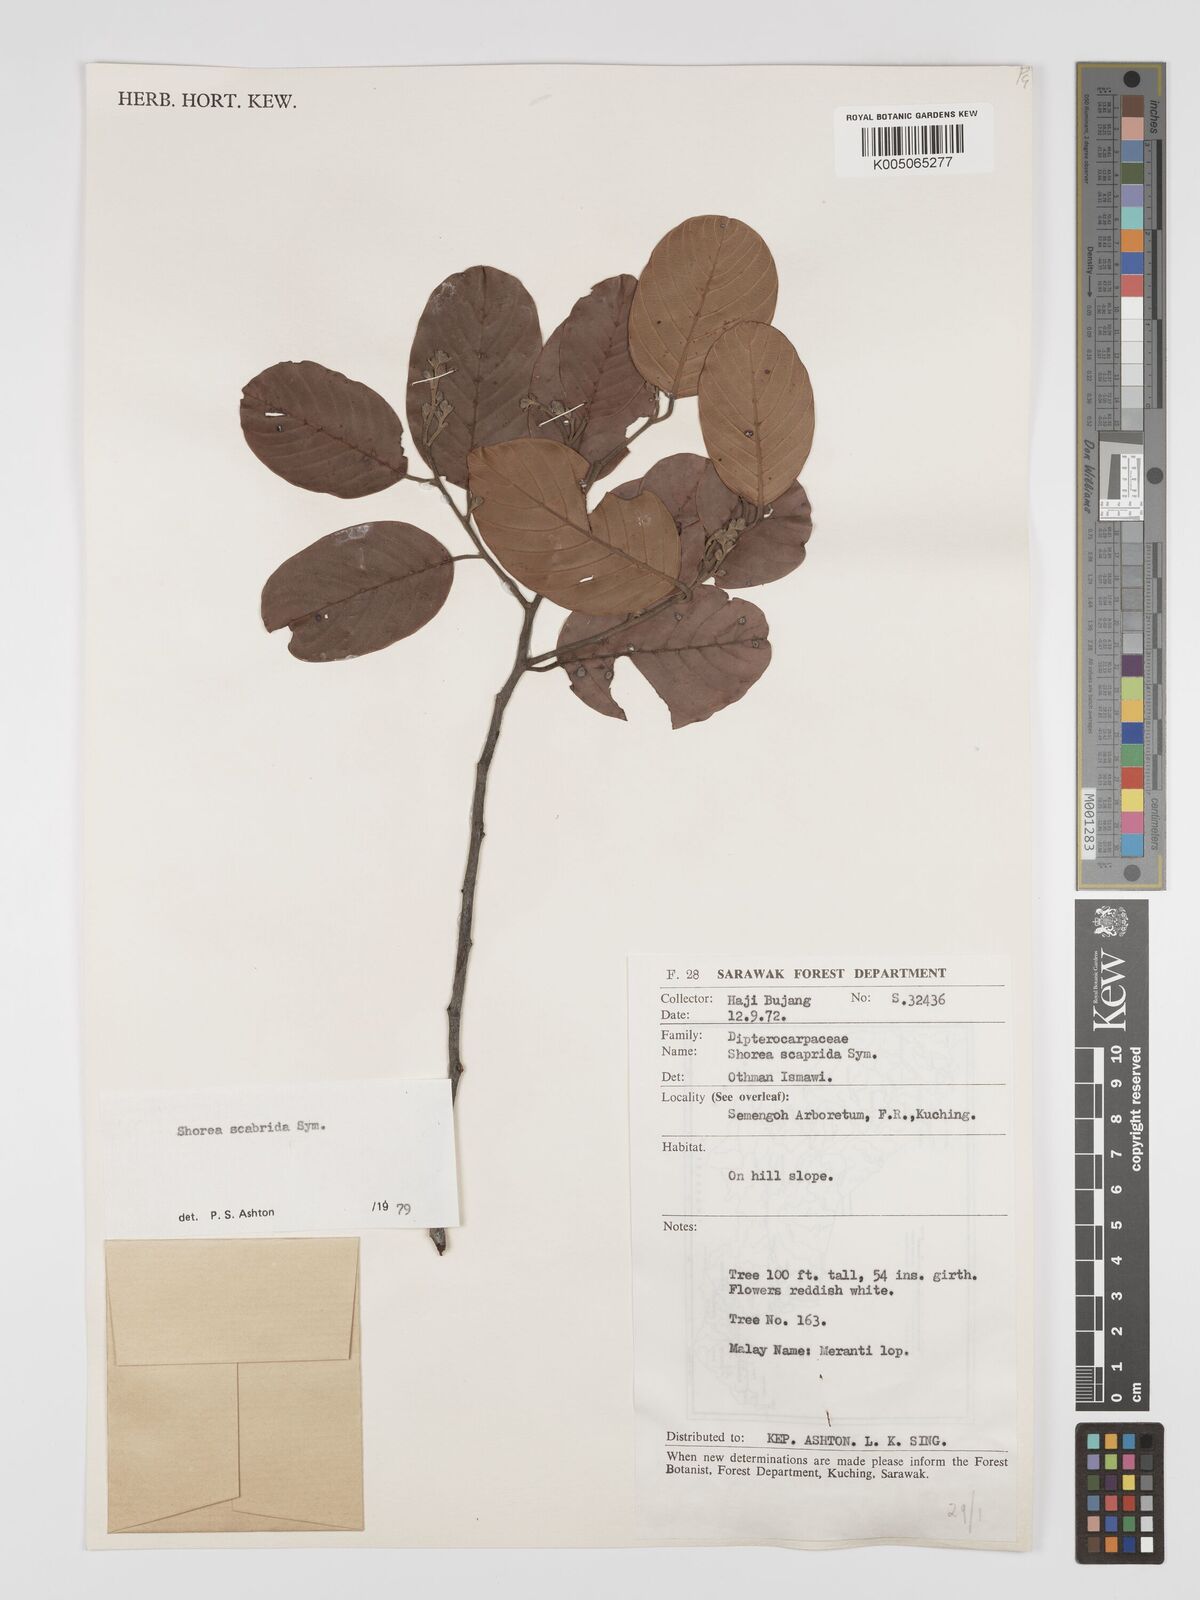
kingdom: Plantae
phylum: Tracheophyta
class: Magnoliopsida
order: Malvales
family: Dipterocarpaceae
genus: Shorea
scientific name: Shorea scabrida
